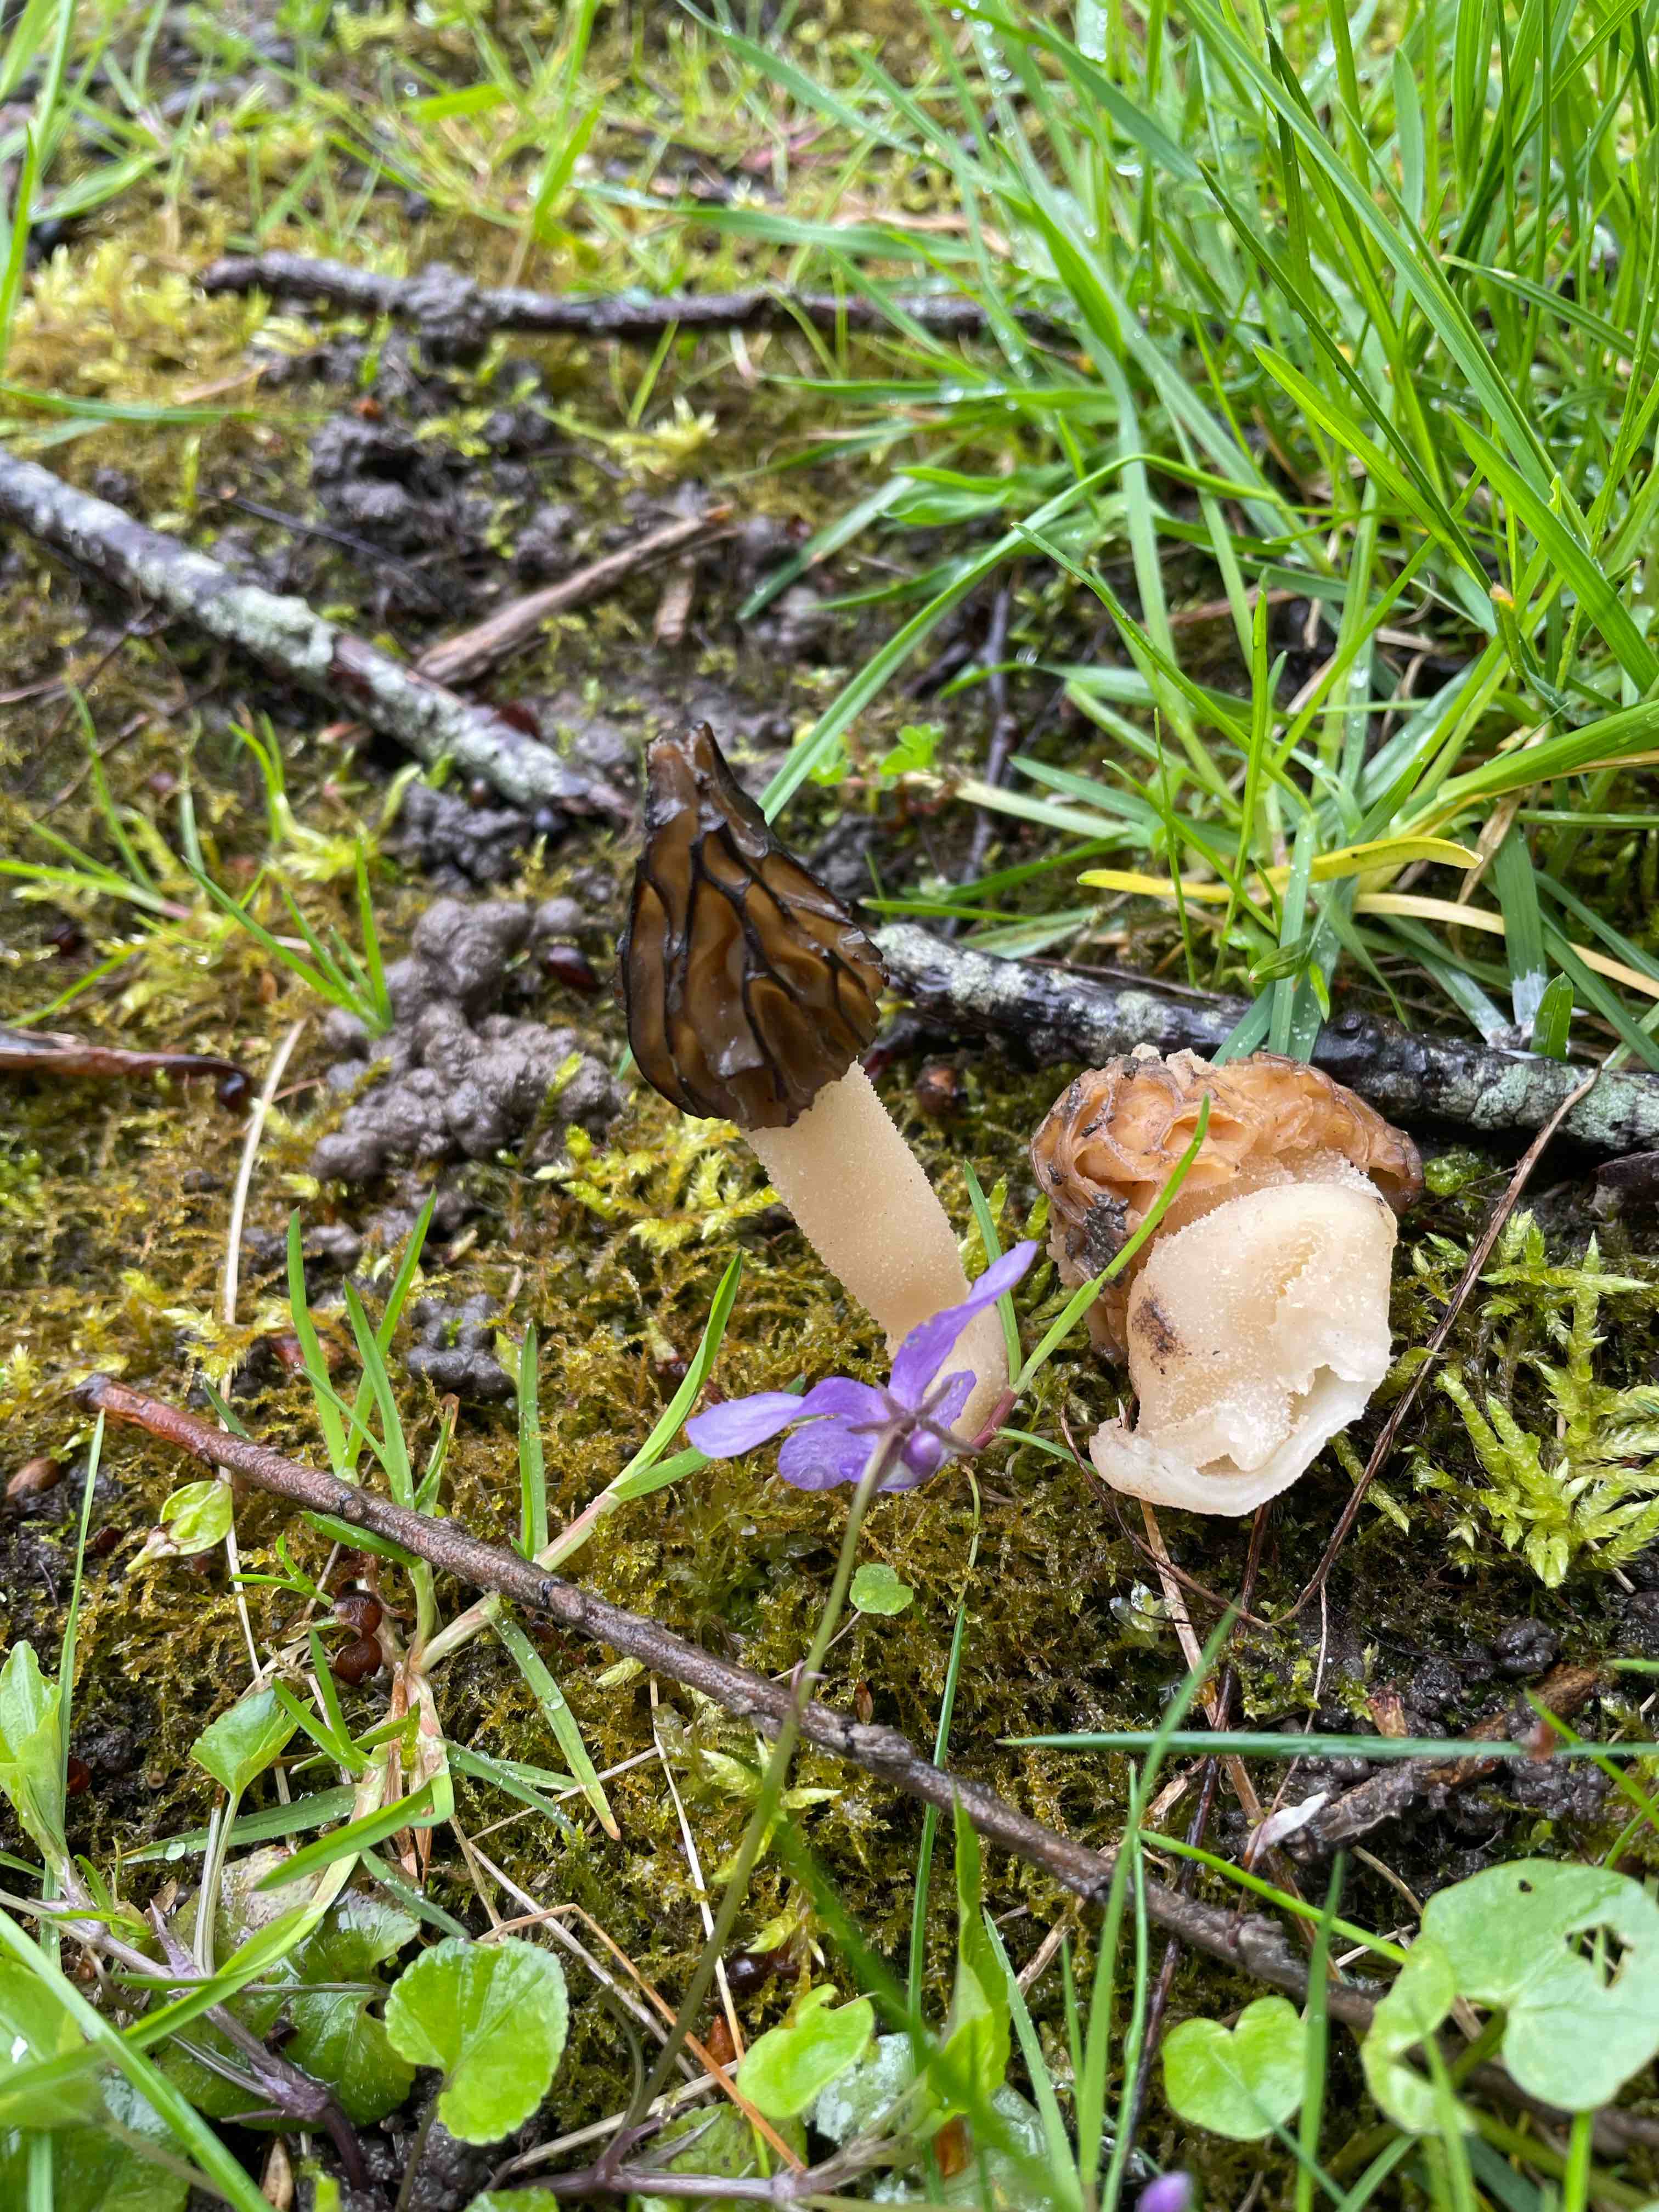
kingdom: Fungi
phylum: Ascomycota
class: Pezizomycetes
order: Pezizales
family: Morchellaceae
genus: Morchella
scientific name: Morchella semilibera
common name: hætte-morkel
